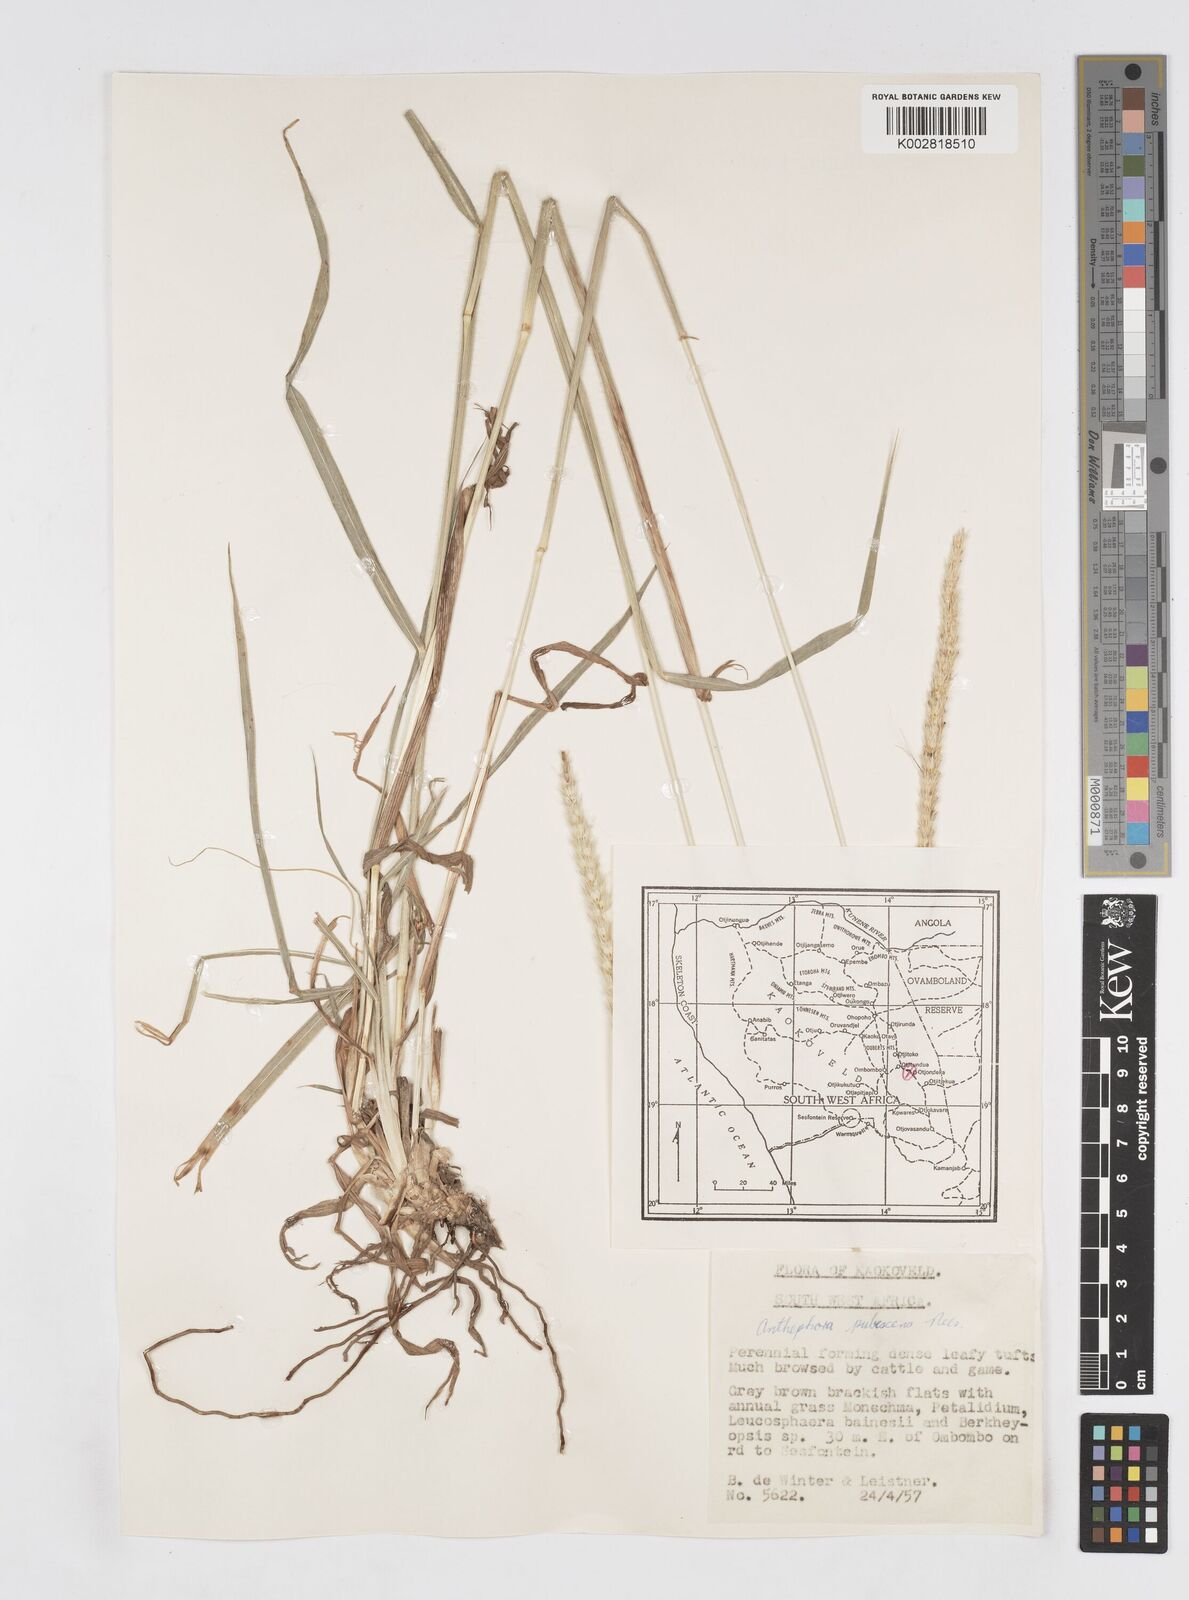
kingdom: Plantae
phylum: Tracheophyta
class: Liliopsida
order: Poales
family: Poaceae
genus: Anthephora
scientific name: Anthephora pubescens
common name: Wool grass
